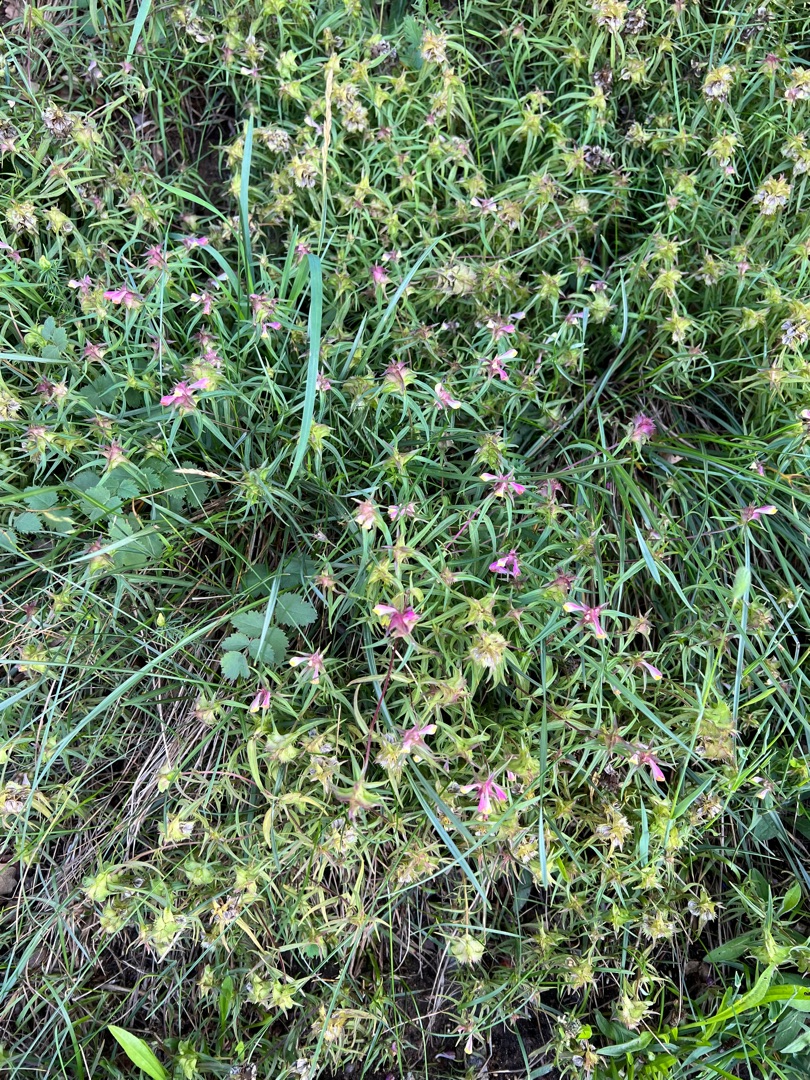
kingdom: Plantae
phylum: Tracheophyta
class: Magnoliopsida
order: Lamiales
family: Orobanchaceae
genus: Melampyrum
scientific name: Melampyrum cristatum
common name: Kantet kohvede
